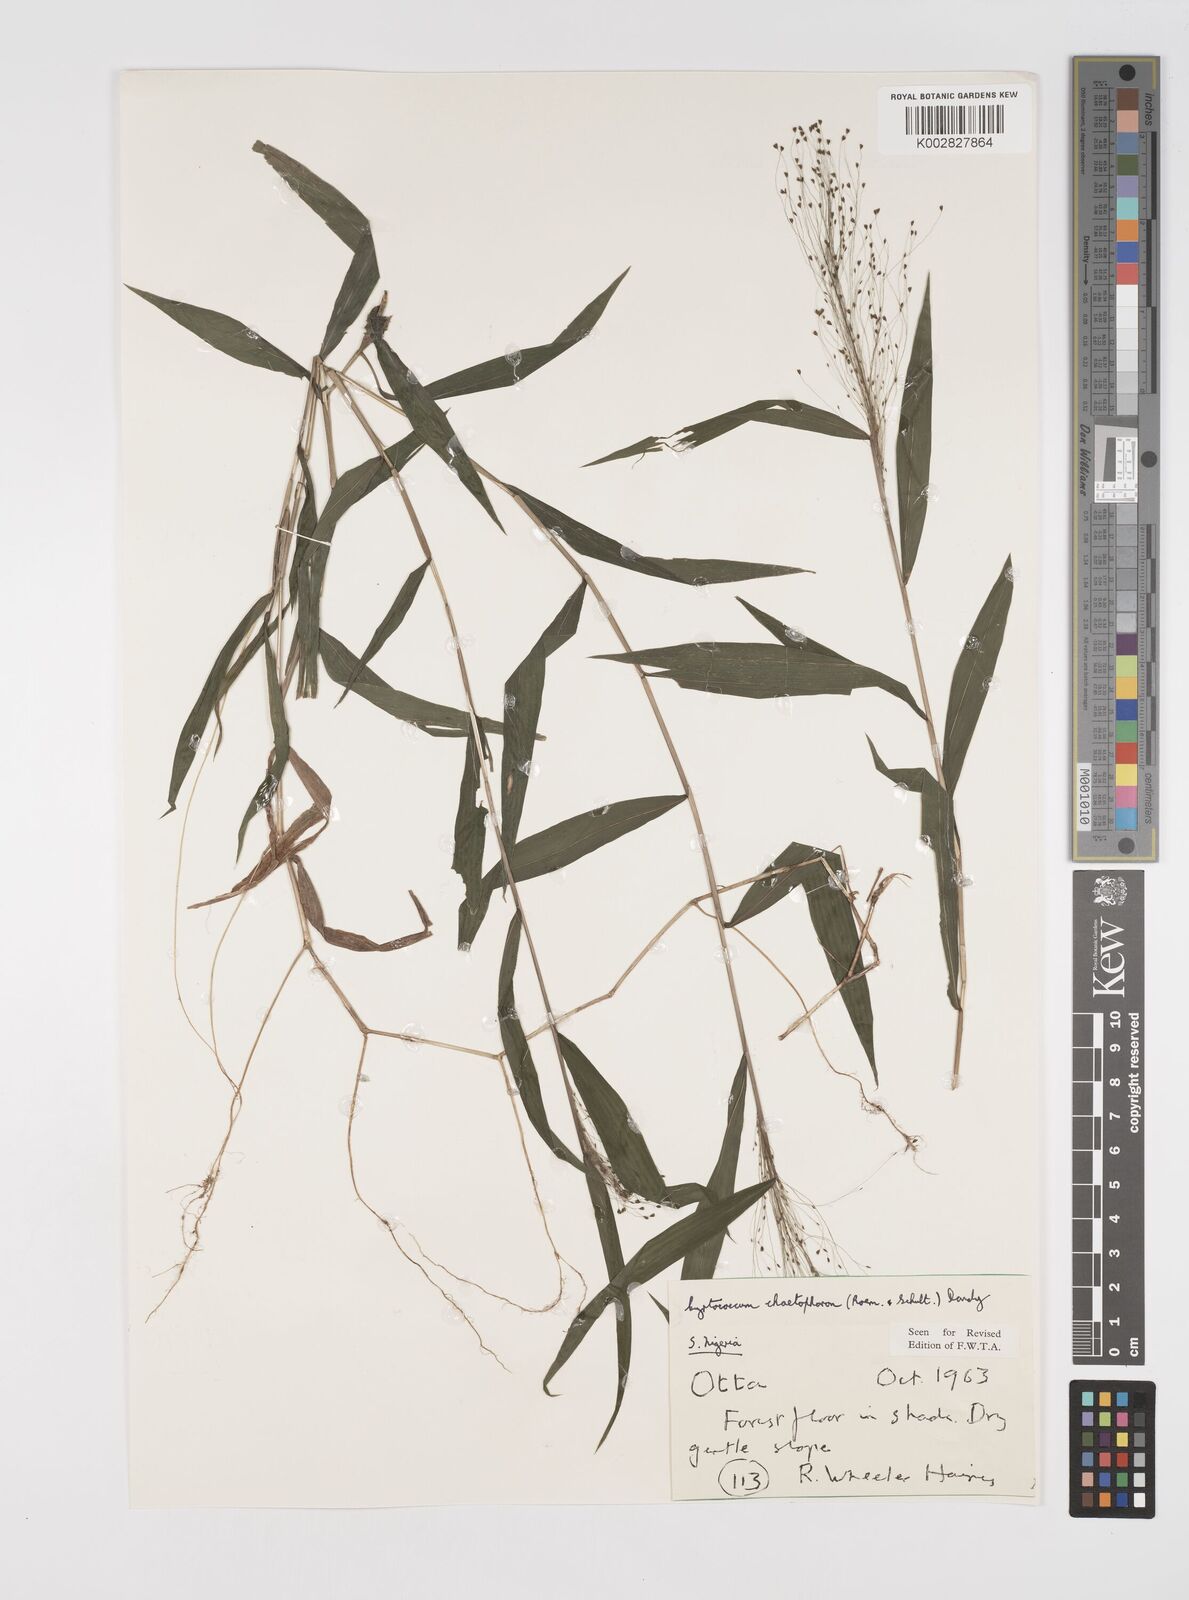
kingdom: Plantae
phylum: Tracheophyta
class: Liliopsida
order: Poales
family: Poaceae
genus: Cyrtococcum
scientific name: Cyrtococcum chaetophoron
